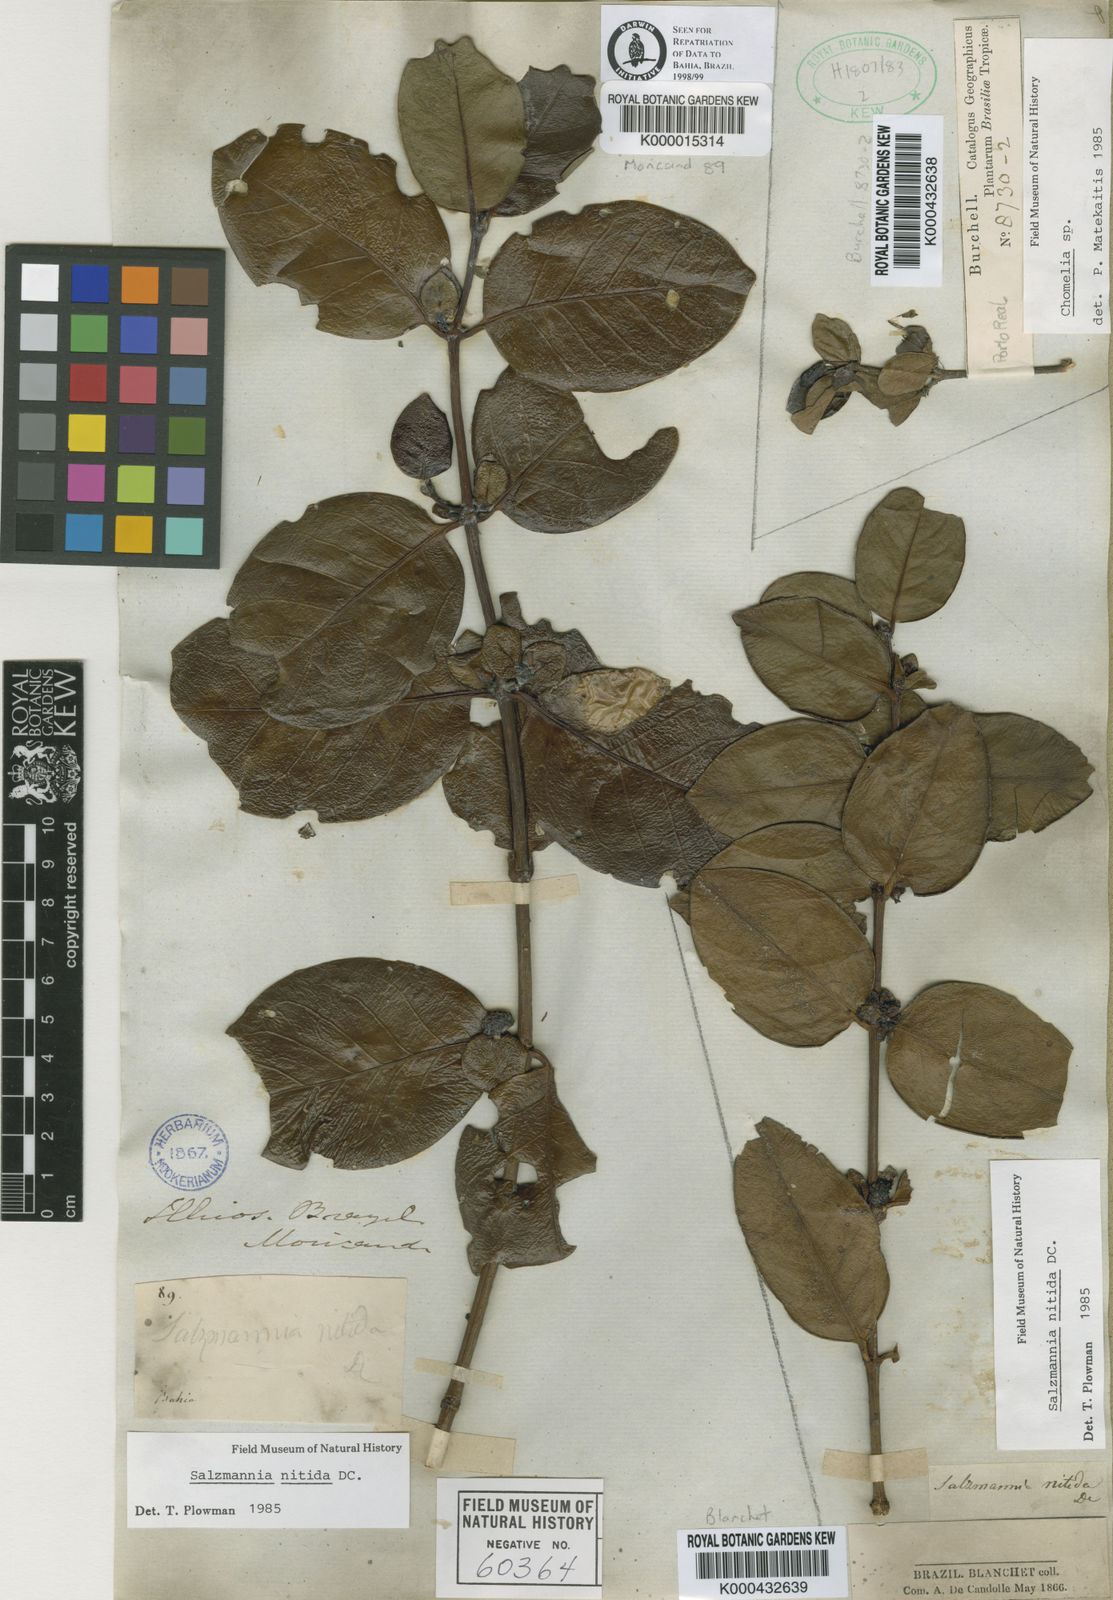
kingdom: Plantae
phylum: Tracheophyta
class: Magnoliopsida
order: Gentianales
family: Rubiaceae
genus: Salzmannia
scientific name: Salzmannia nitida
